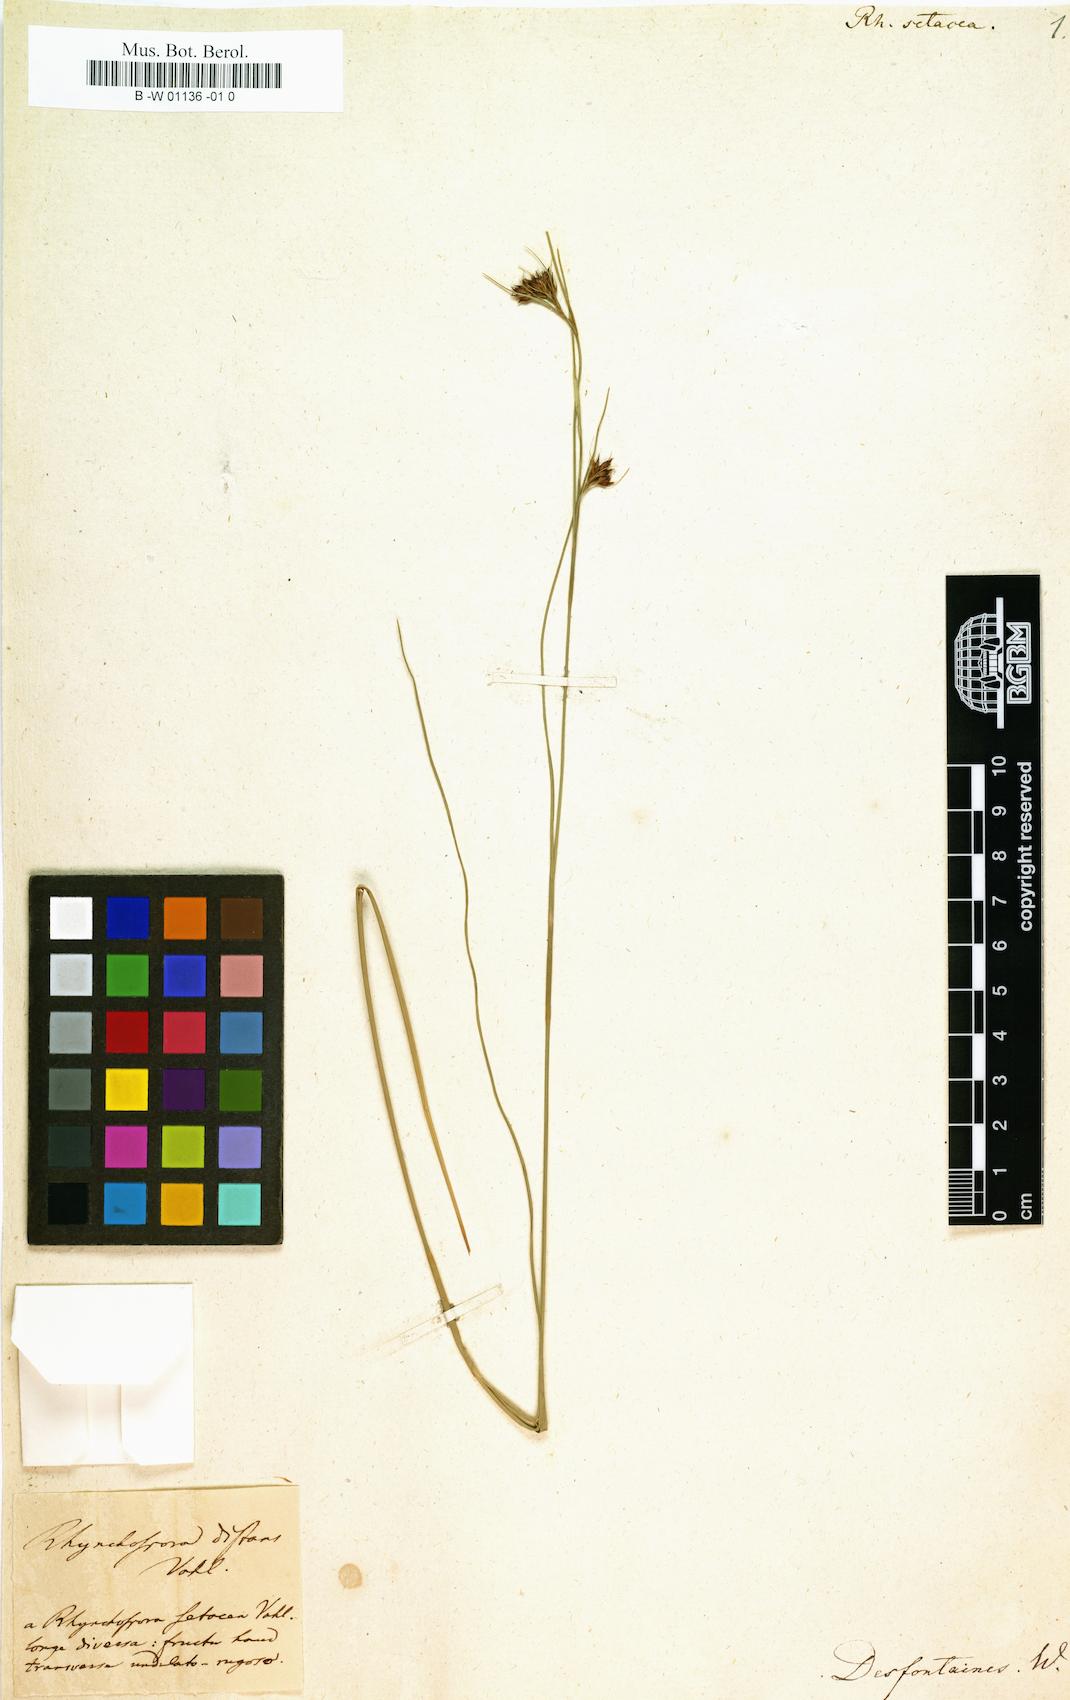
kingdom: Plantae
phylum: Tracheophyta
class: Liliopsida
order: Poales
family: Cyperaceae
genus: Rhynchospora
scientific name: Rhynchospora rariflora
